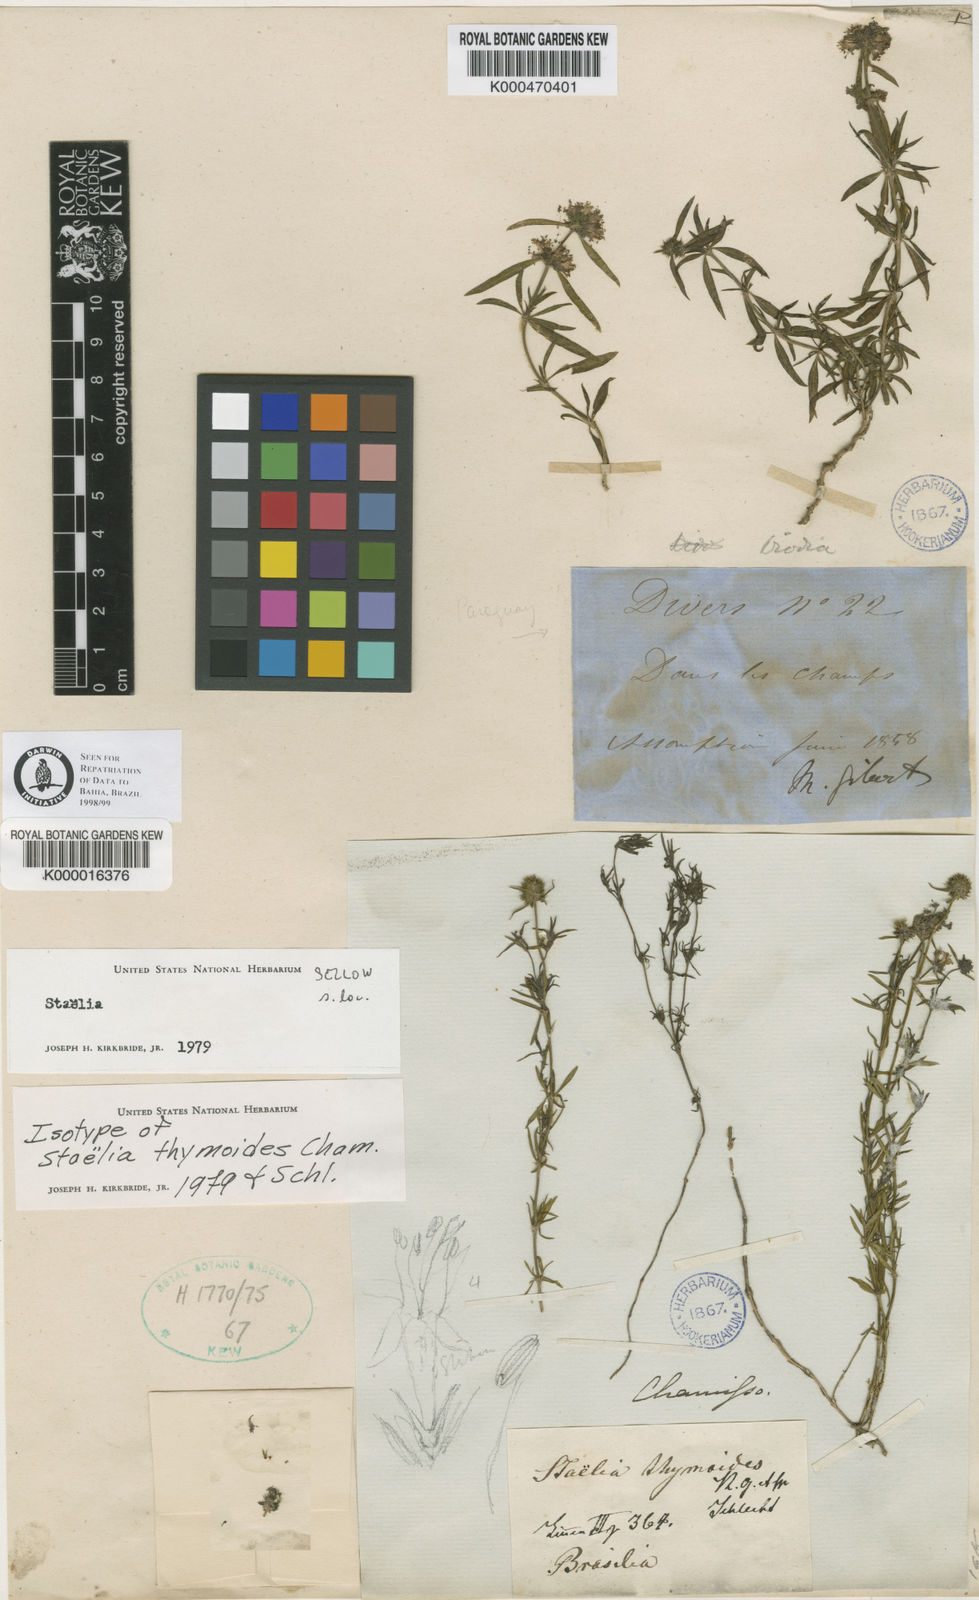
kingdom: Plantae
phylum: Tracheophyta
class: Magnoliopsida
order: Gentianales
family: Rubiaceae
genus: Staelia
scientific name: Staelia thymoides
